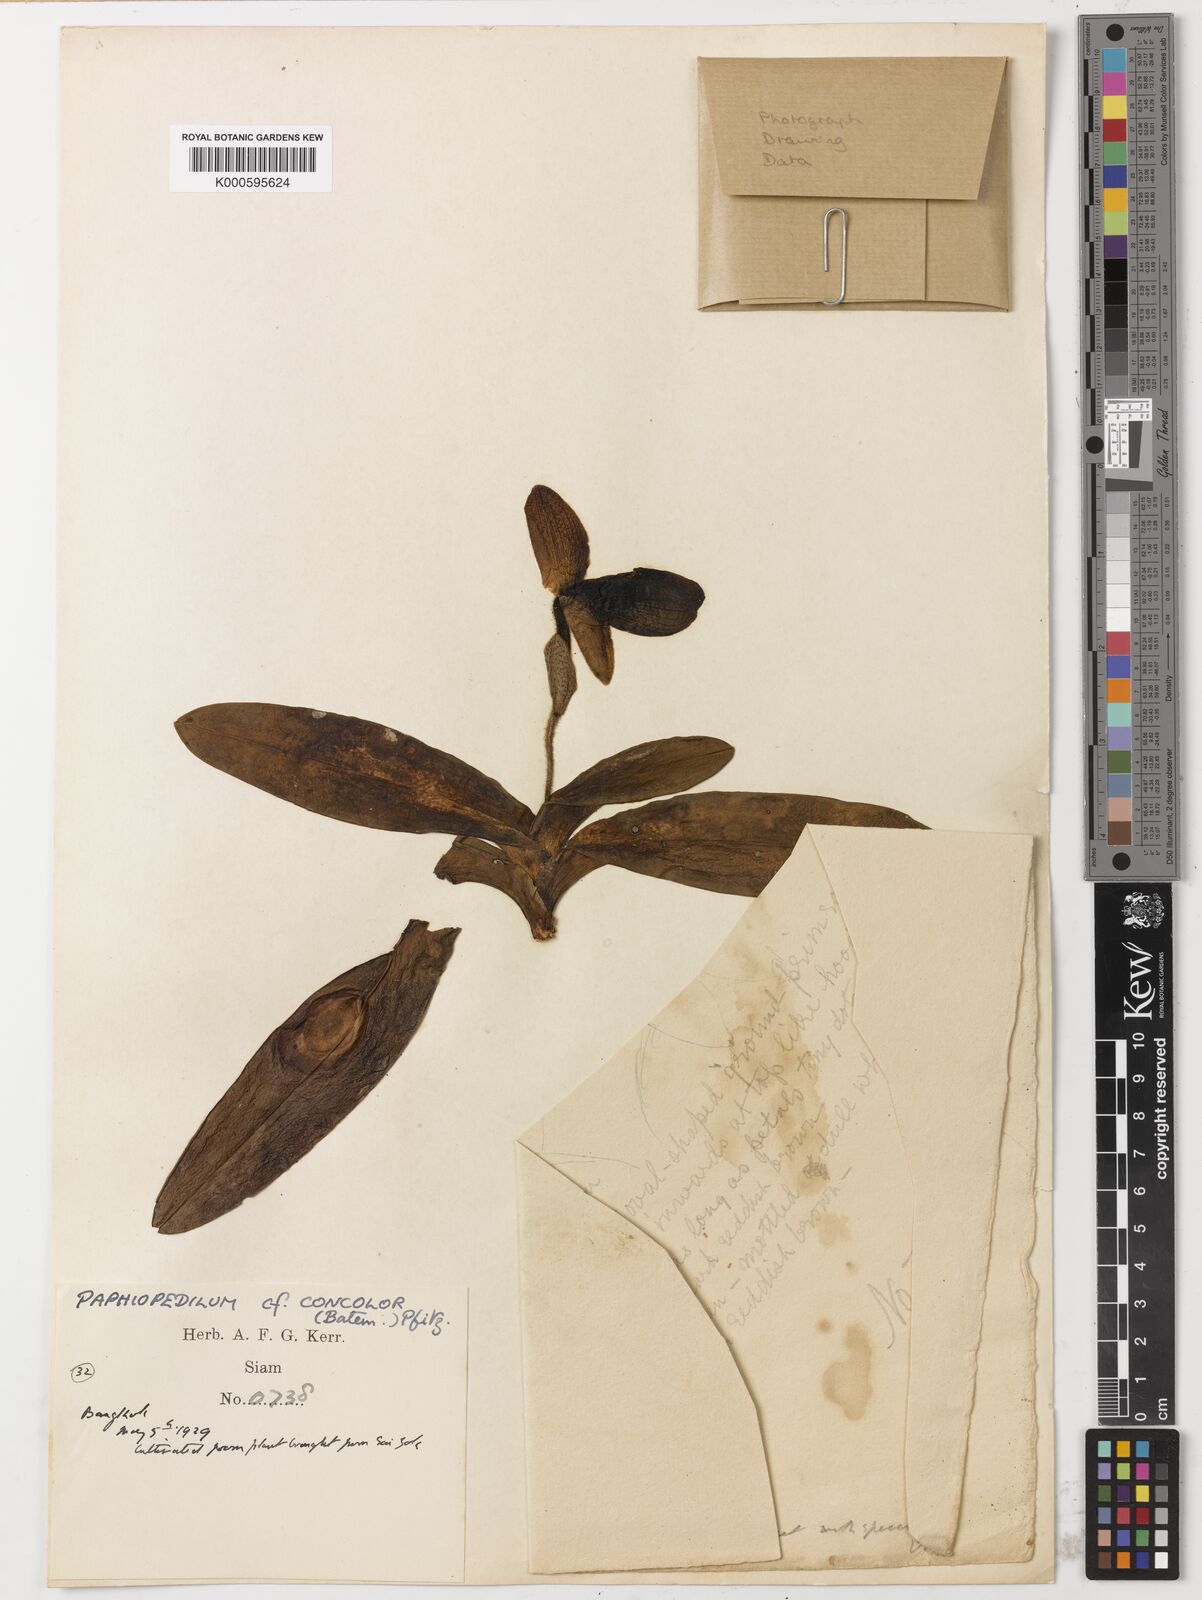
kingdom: Plantae
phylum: Tracheophyta
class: Liliopsida
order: Asparagales
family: Orchidaceae
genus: Paphiopedilum
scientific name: Paphiopedilum concolor
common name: One colored paphiopedilum
